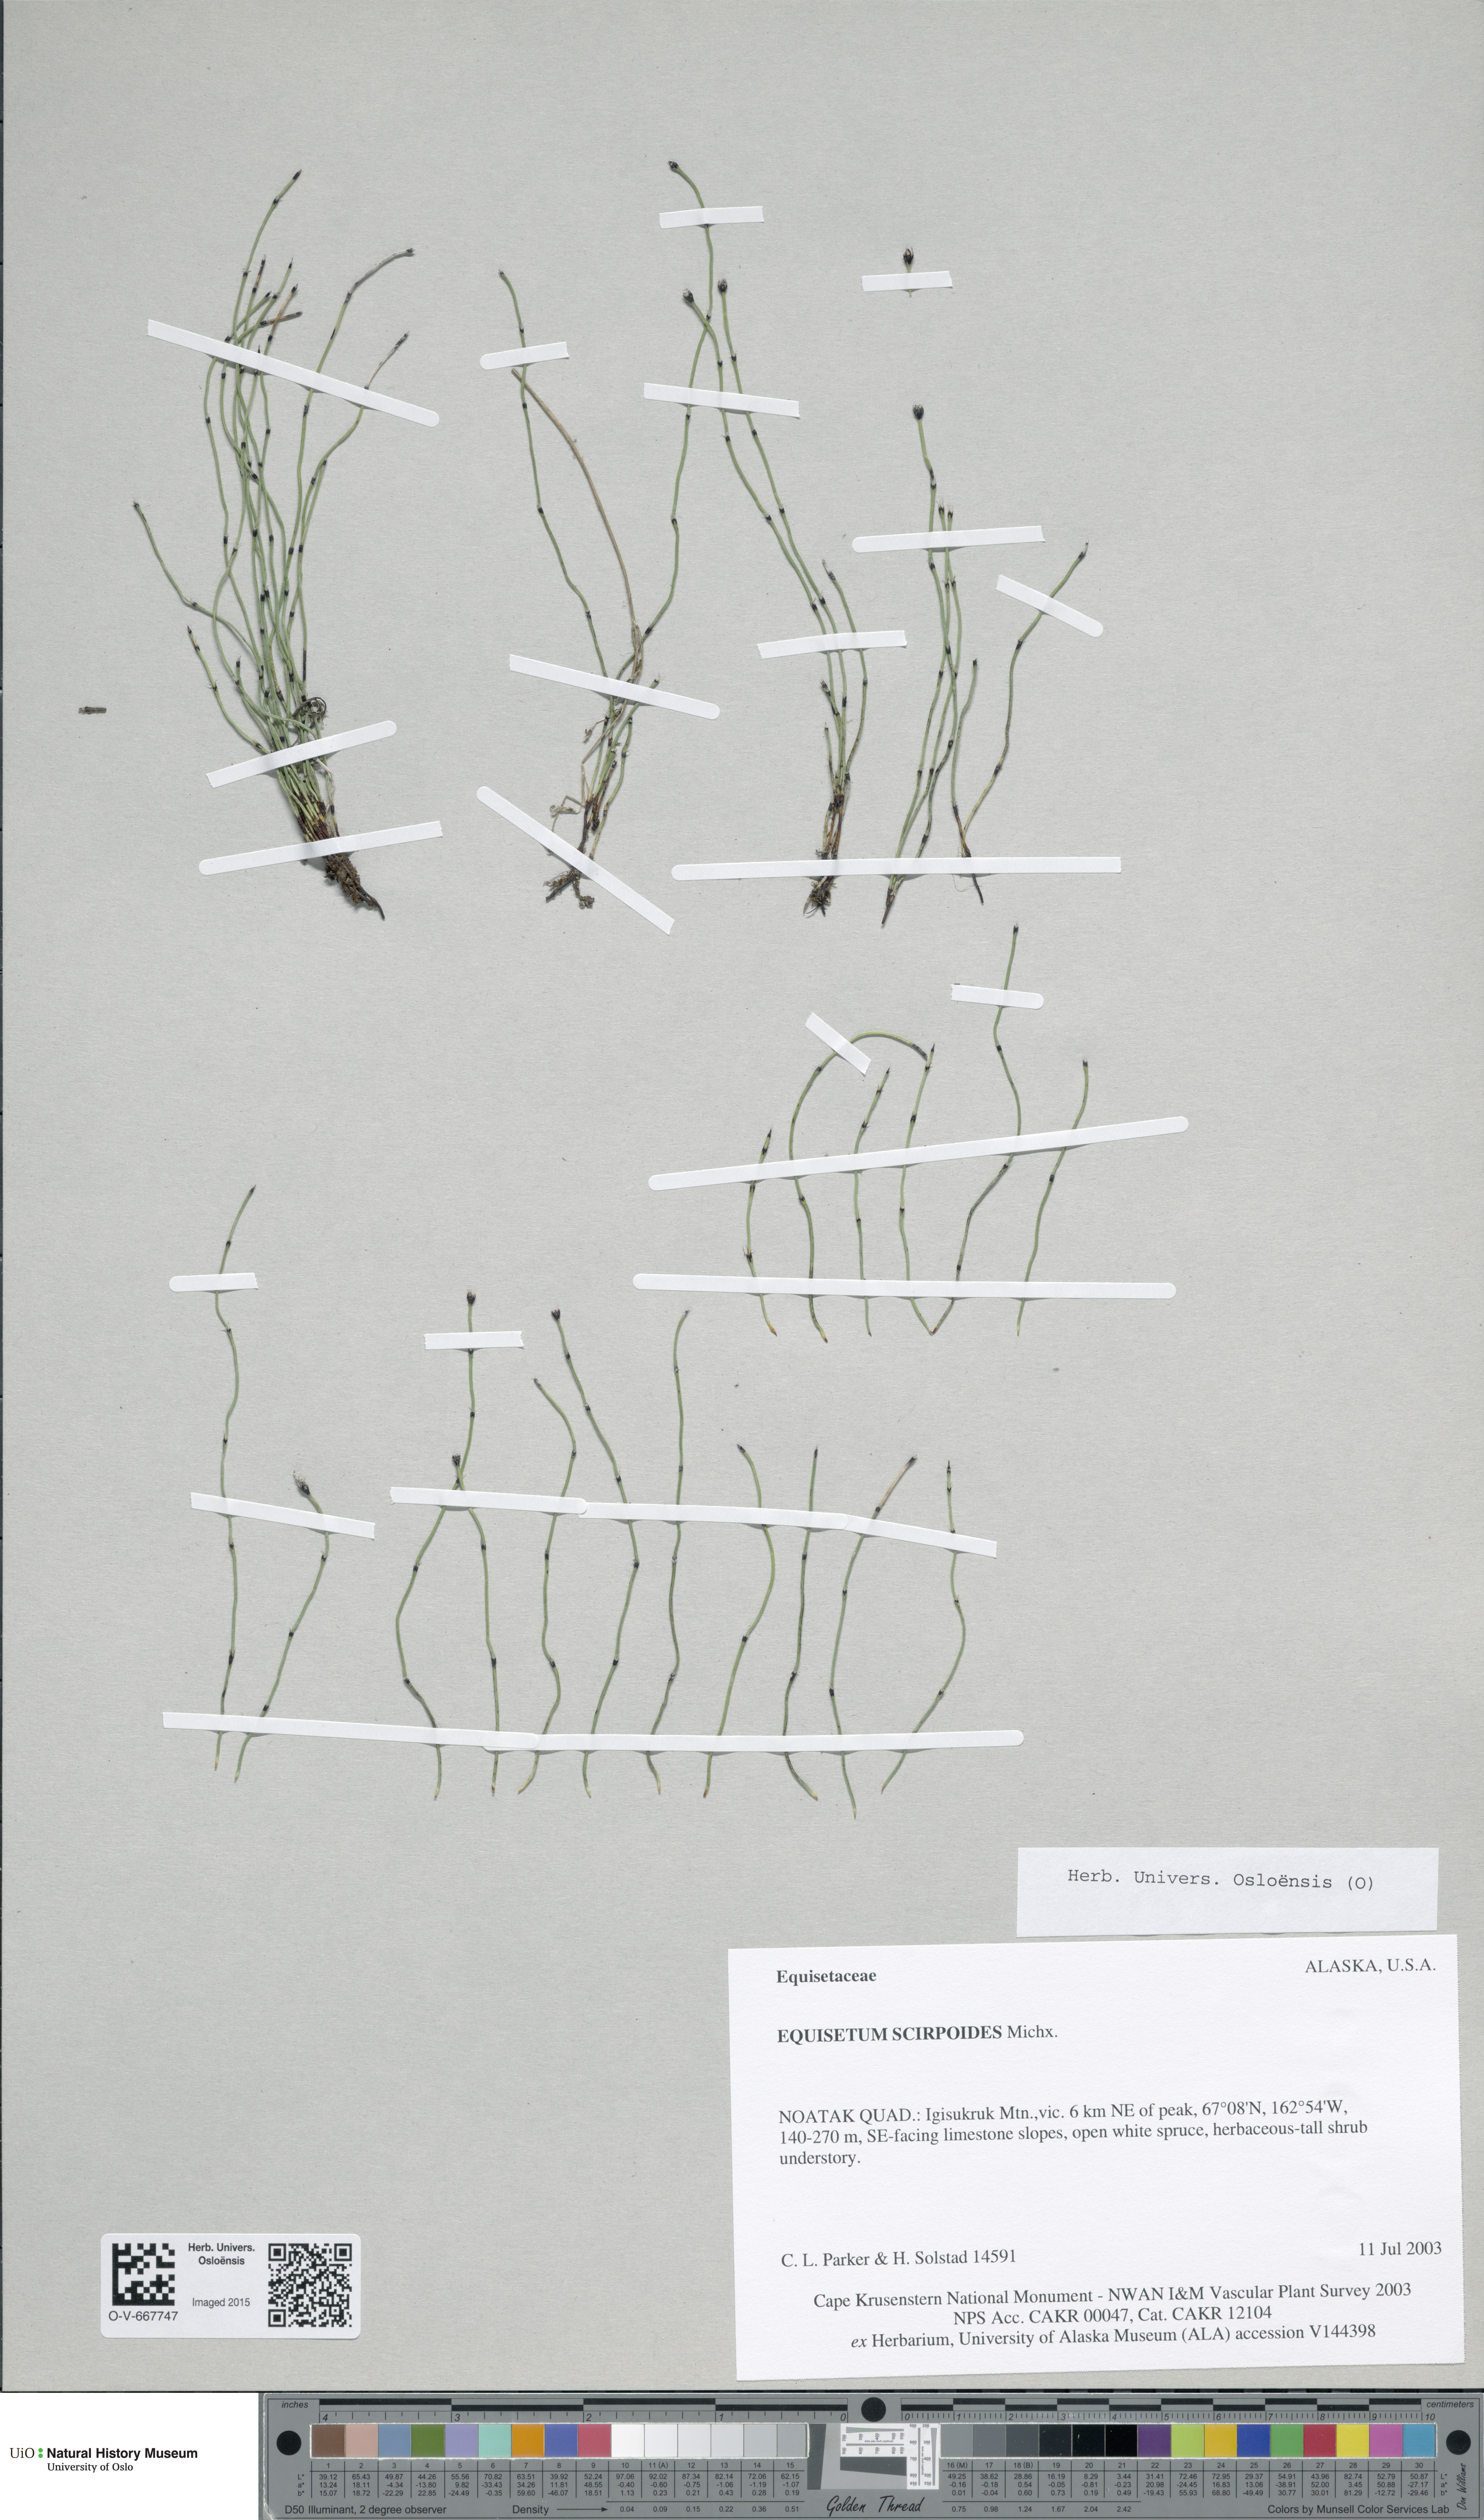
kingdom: Plantae
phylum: Tracheophyta
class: Polypodiopsida
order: Equisetales
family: Equisetaceae
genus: Equisetum
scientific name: Equisetum scirpoides
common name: Delicate horsetail
